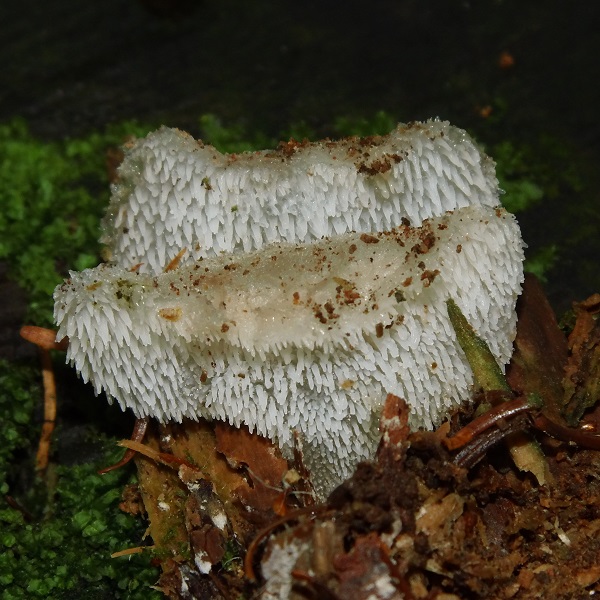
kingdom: Fungi
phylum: Basidiomycota
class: Agaricomycetes
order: Auriculariales
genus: Pseudohydnum
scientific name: Pseudohydnum gelatinosum
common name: bævretand
